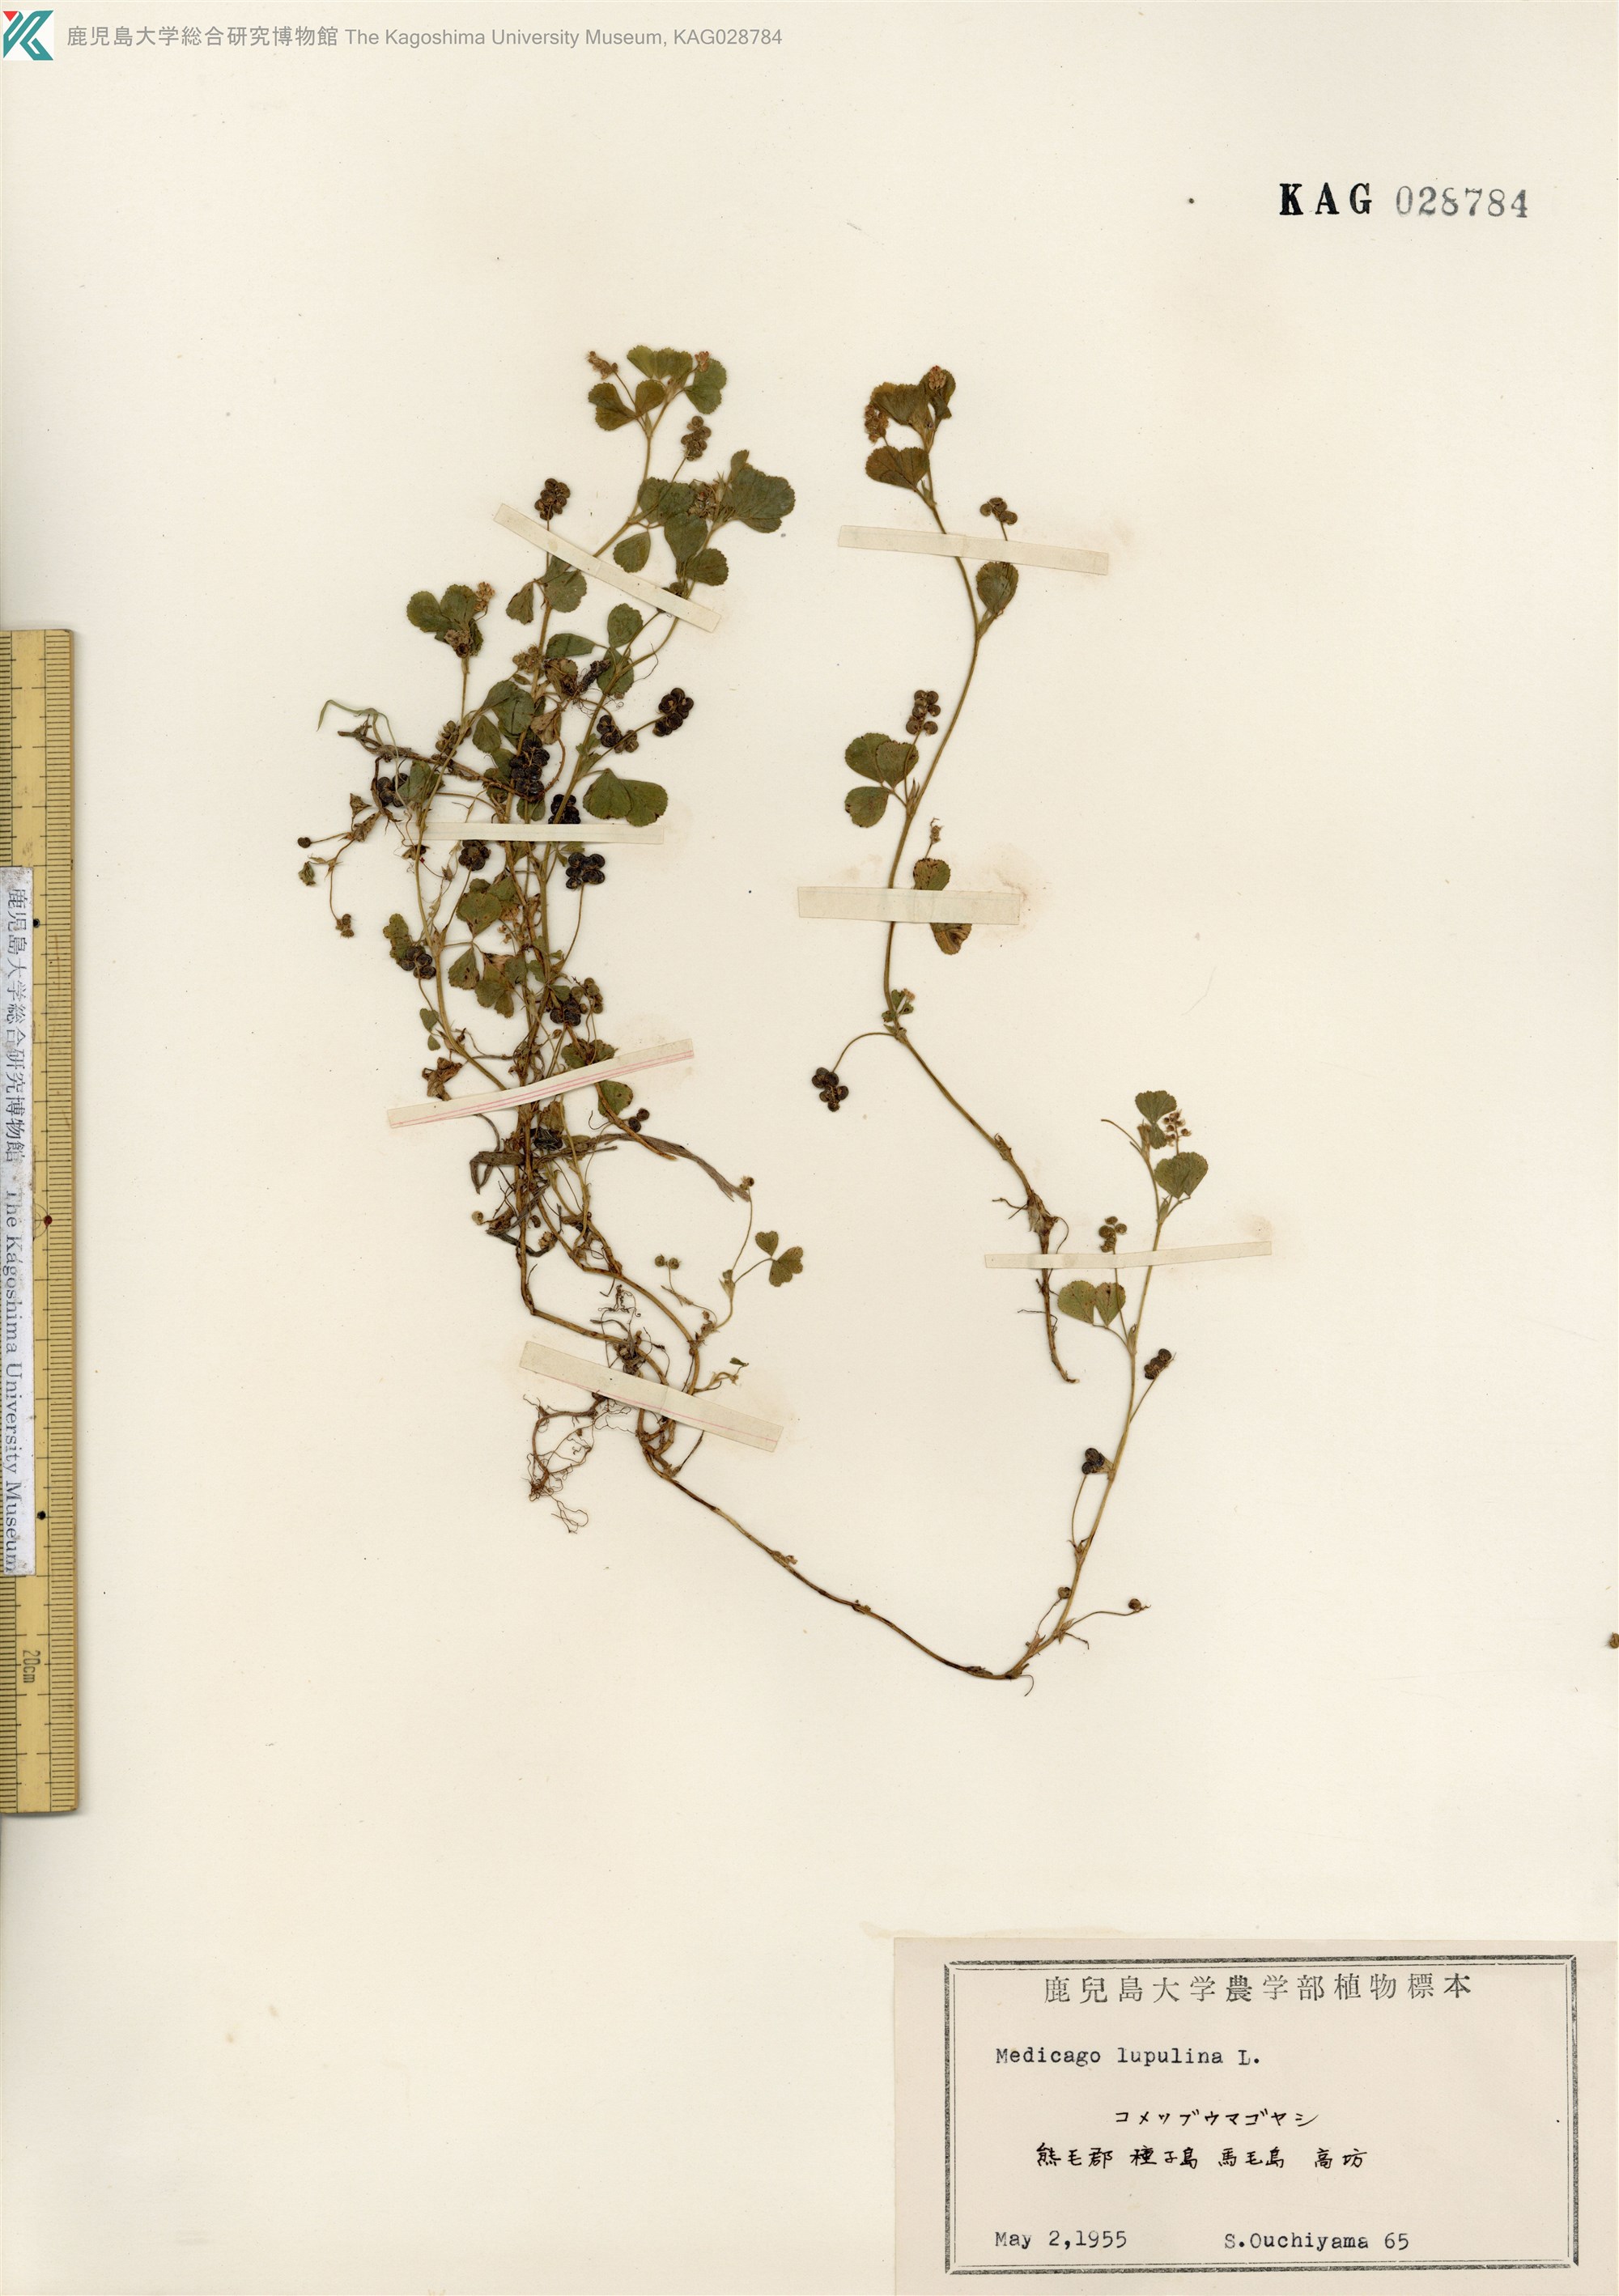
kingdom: Plantae
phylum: Tracheophyta
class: Magnoliopsida
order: Fabales
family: Fabaceae
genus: Medicago
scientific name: Medicago lupulina
